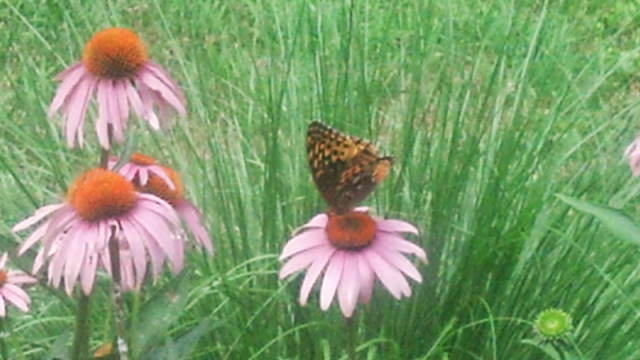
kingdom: Animalia
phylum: Arthropoda
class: Insecta
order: Lepidoptera
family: Nymphalidae
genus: Speyeria
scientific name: Speyeria atlantis
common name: Atlantis Fritillary
